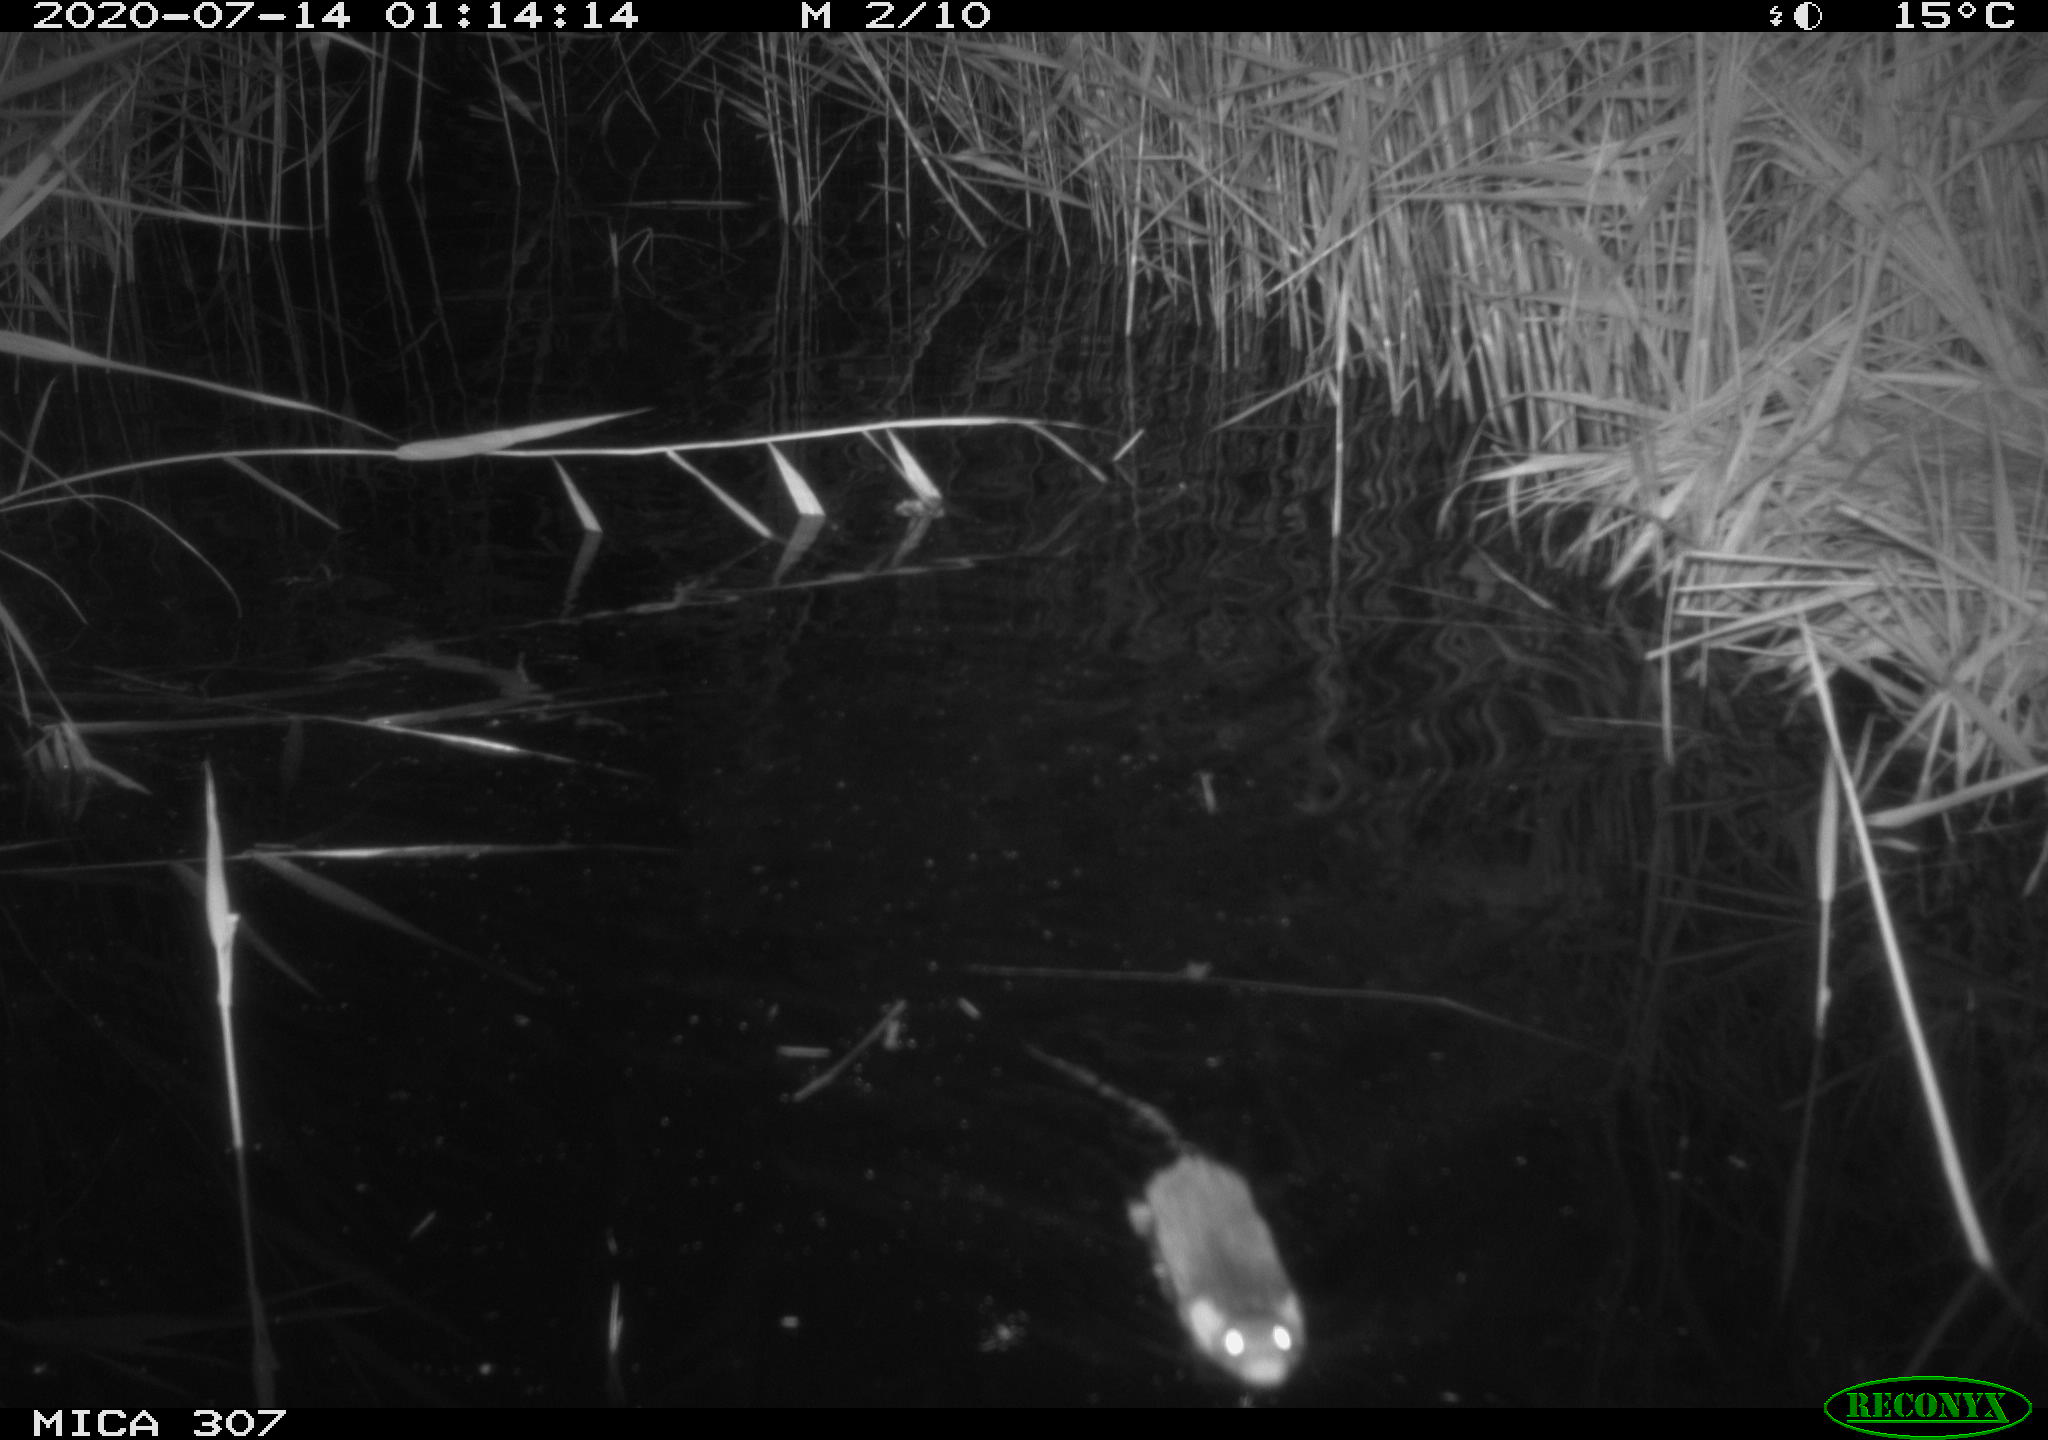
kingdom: Animalia
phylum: Chordata
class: Mammalia
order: Rodentia
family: Muridae
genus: Rattus
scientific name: Rattus norvegicus
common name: Brown rat
